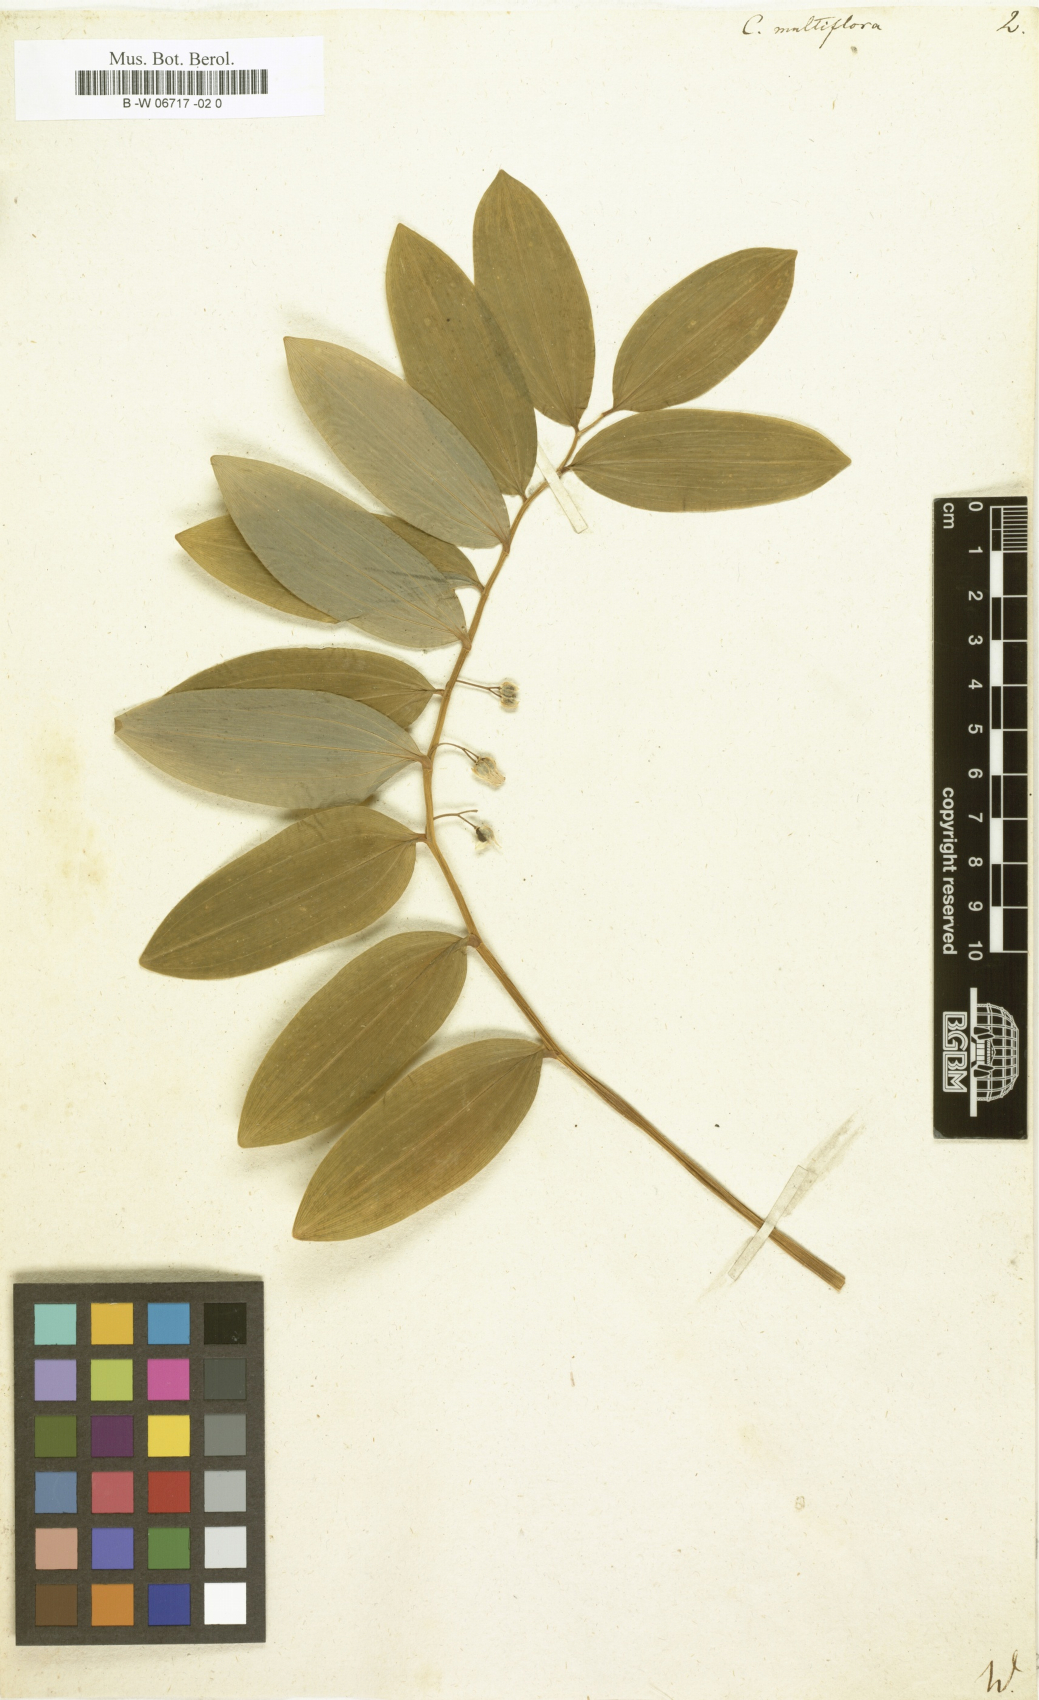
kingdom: Plantae
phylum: Tracheophyta
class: Liliopsida
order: Asparagales
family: Asparagaceae
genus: Polygonatum
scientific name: Polygonatum multiflorum
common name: Solomon's-seal
